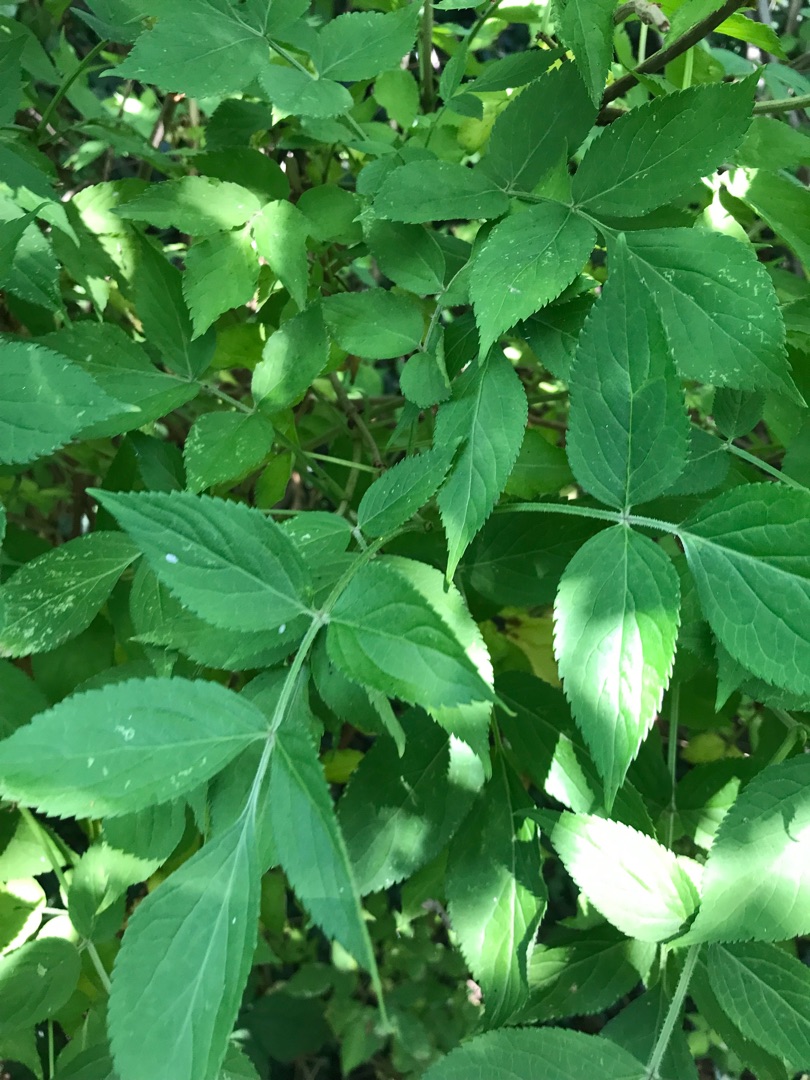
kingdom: Plantae
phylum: Tracheophyta
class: Magnoliopsida
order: Dipsacales
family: Viburnaceae
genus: Sambucus
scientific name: Sambucus nigra
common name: Almindelig hyld
